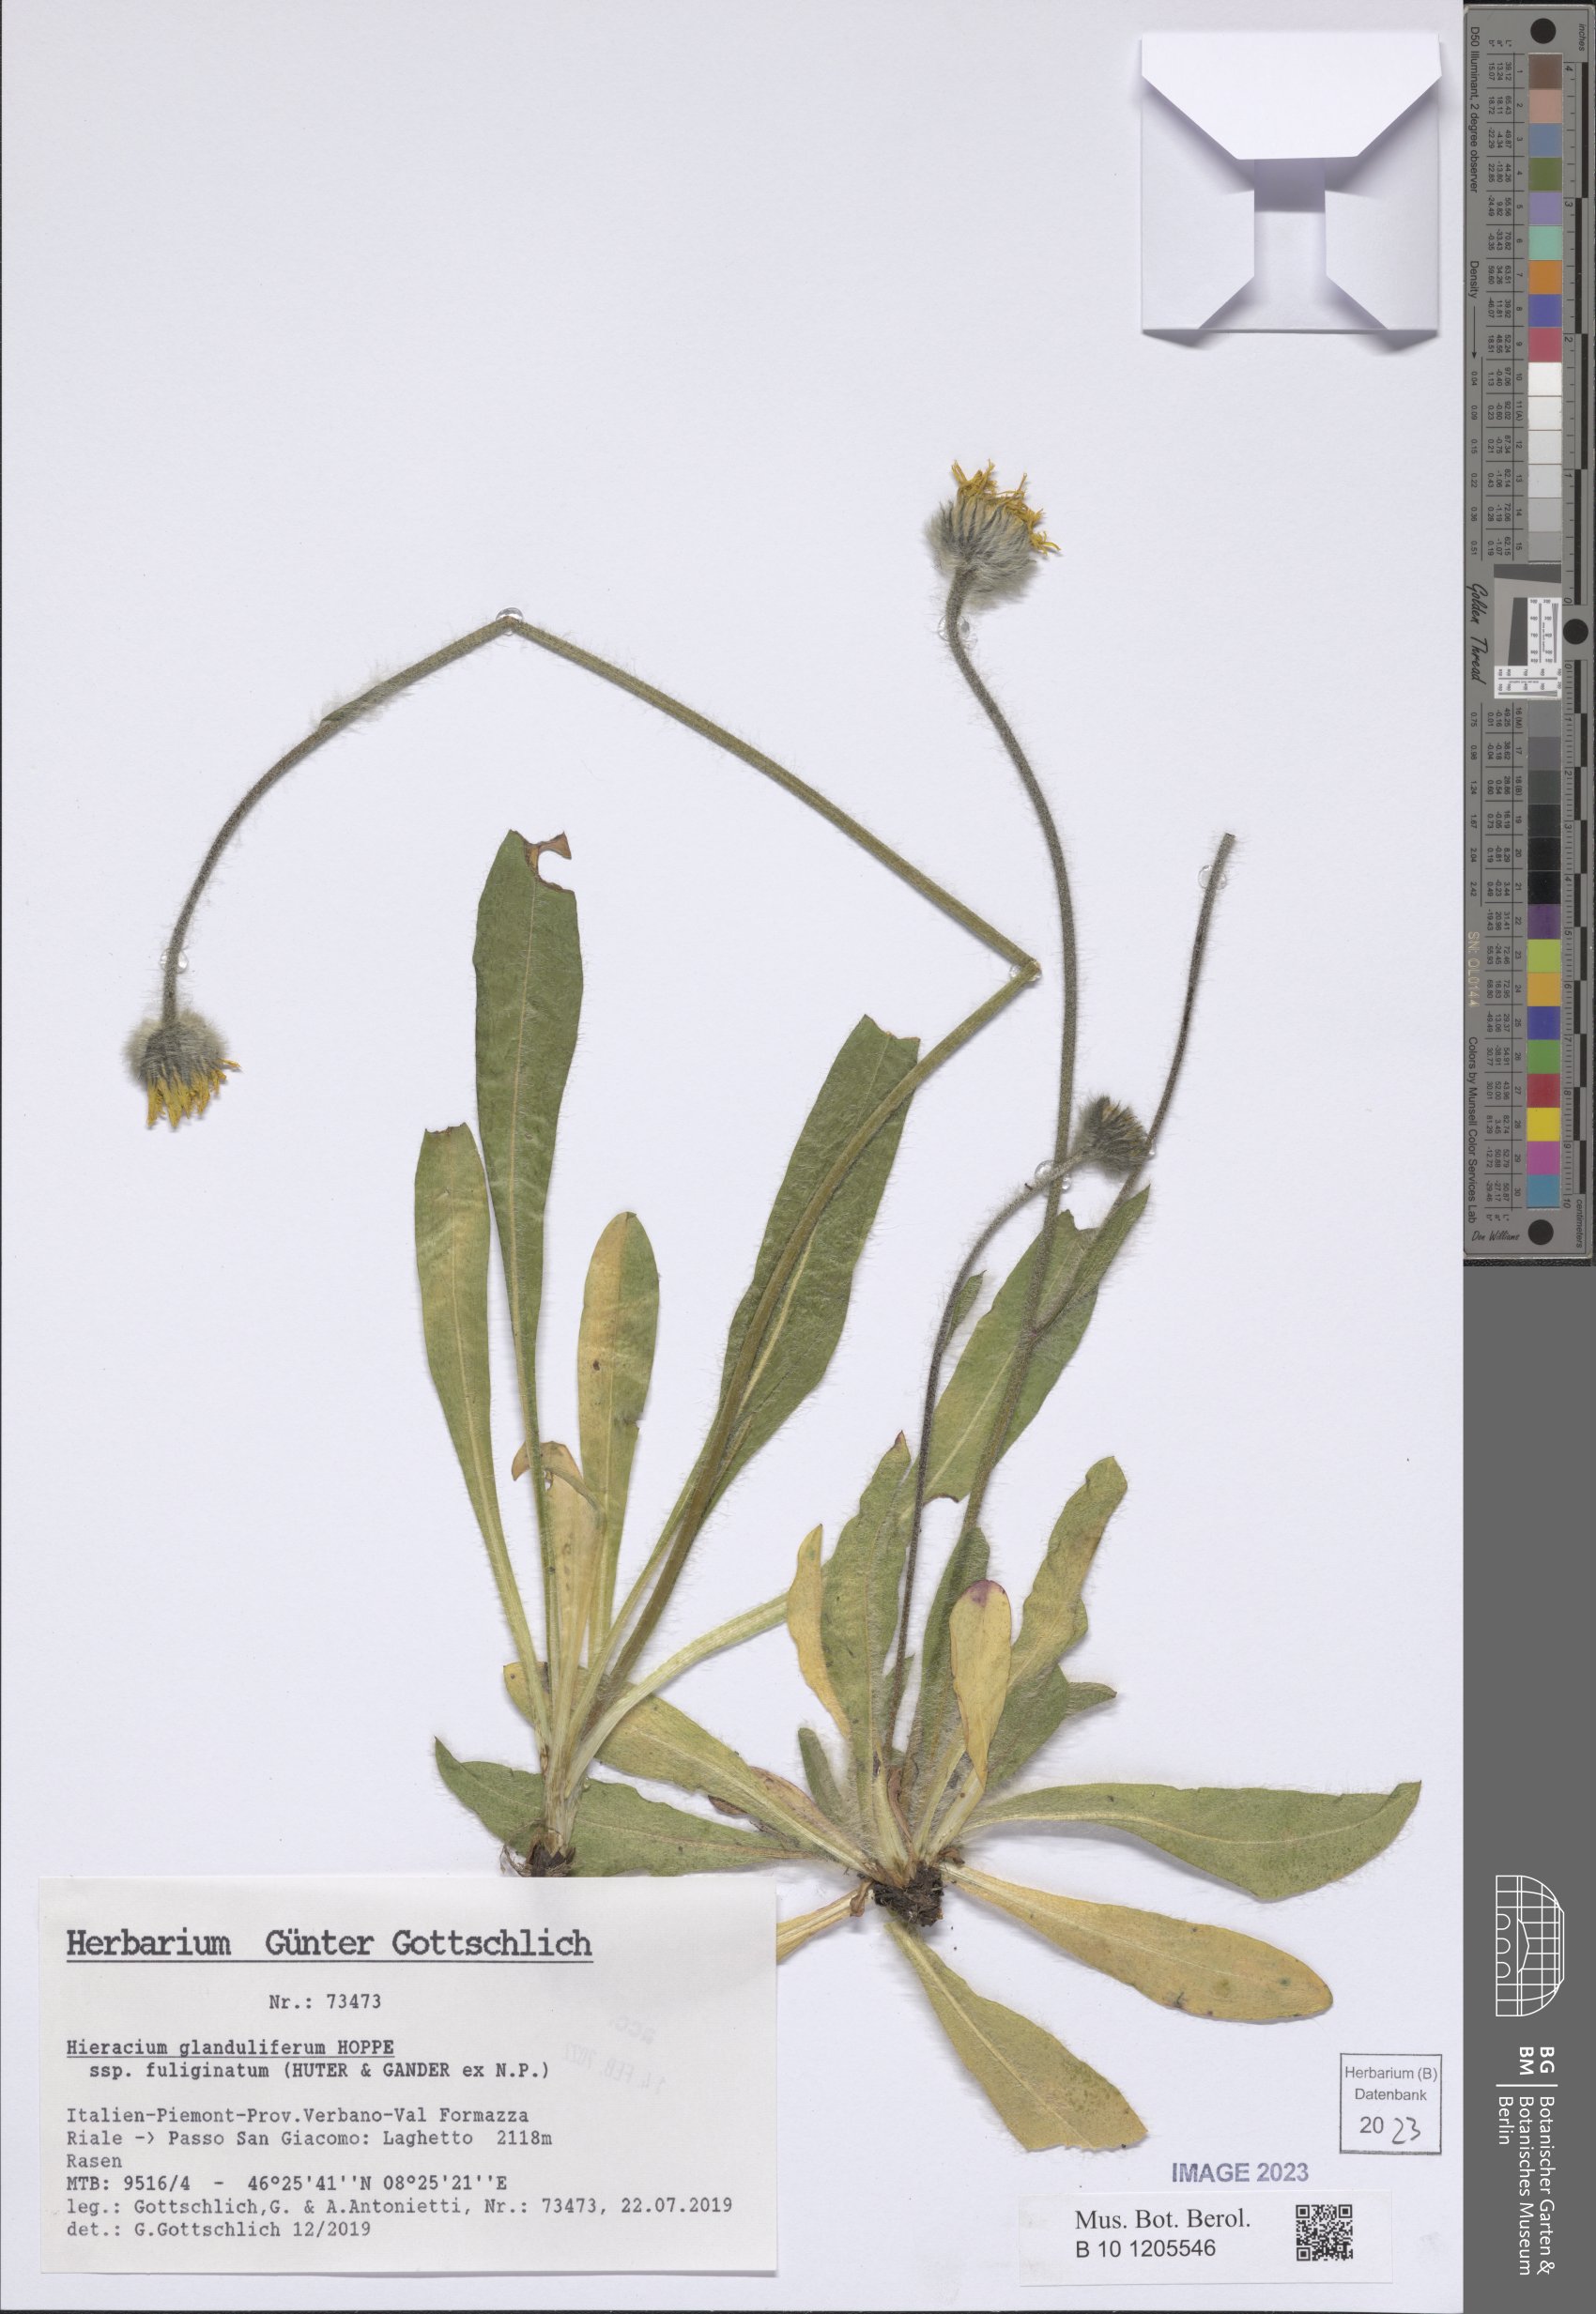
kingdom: Plantae
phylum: Tracheophyta
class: Magnoliopsida
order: Asterales
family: Asteraceae
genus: Hieracium
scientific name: Hieracium piliferum
